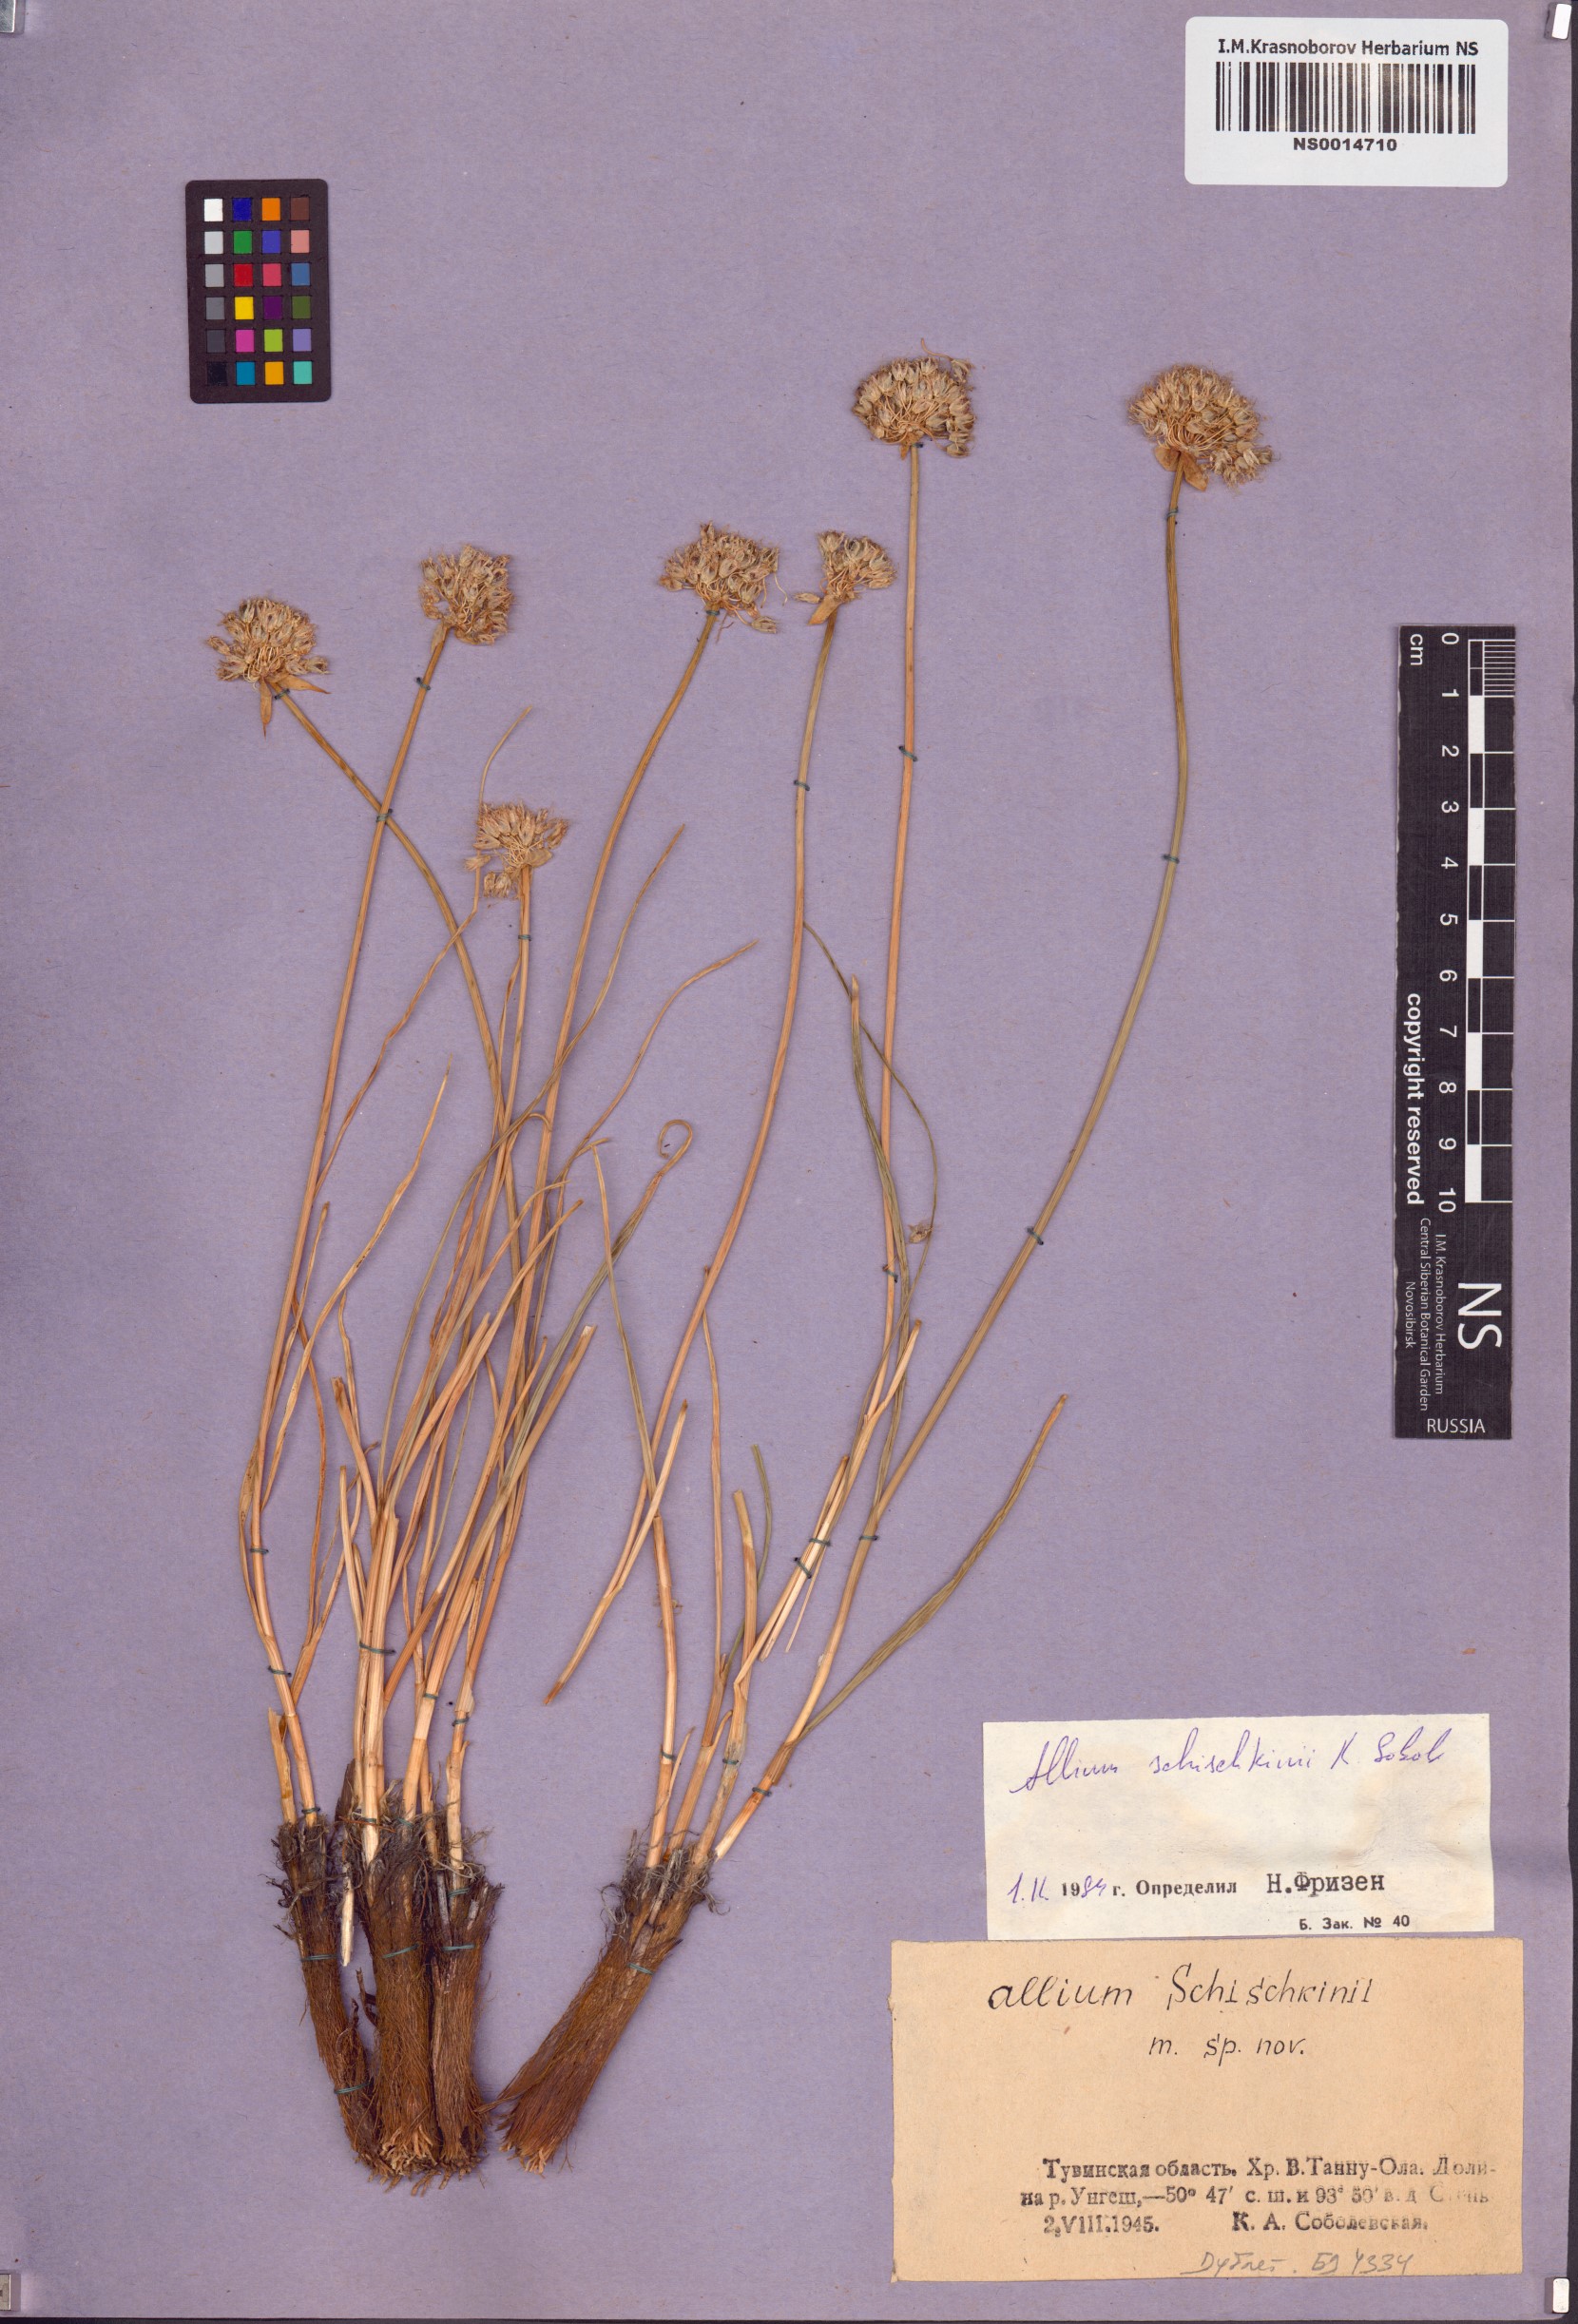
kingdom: Plantae
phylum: Tracheophyta
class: Liliopsida
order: Asparagales
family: Amaryllidaceae
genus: Allium
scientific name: Allium schischkinii
